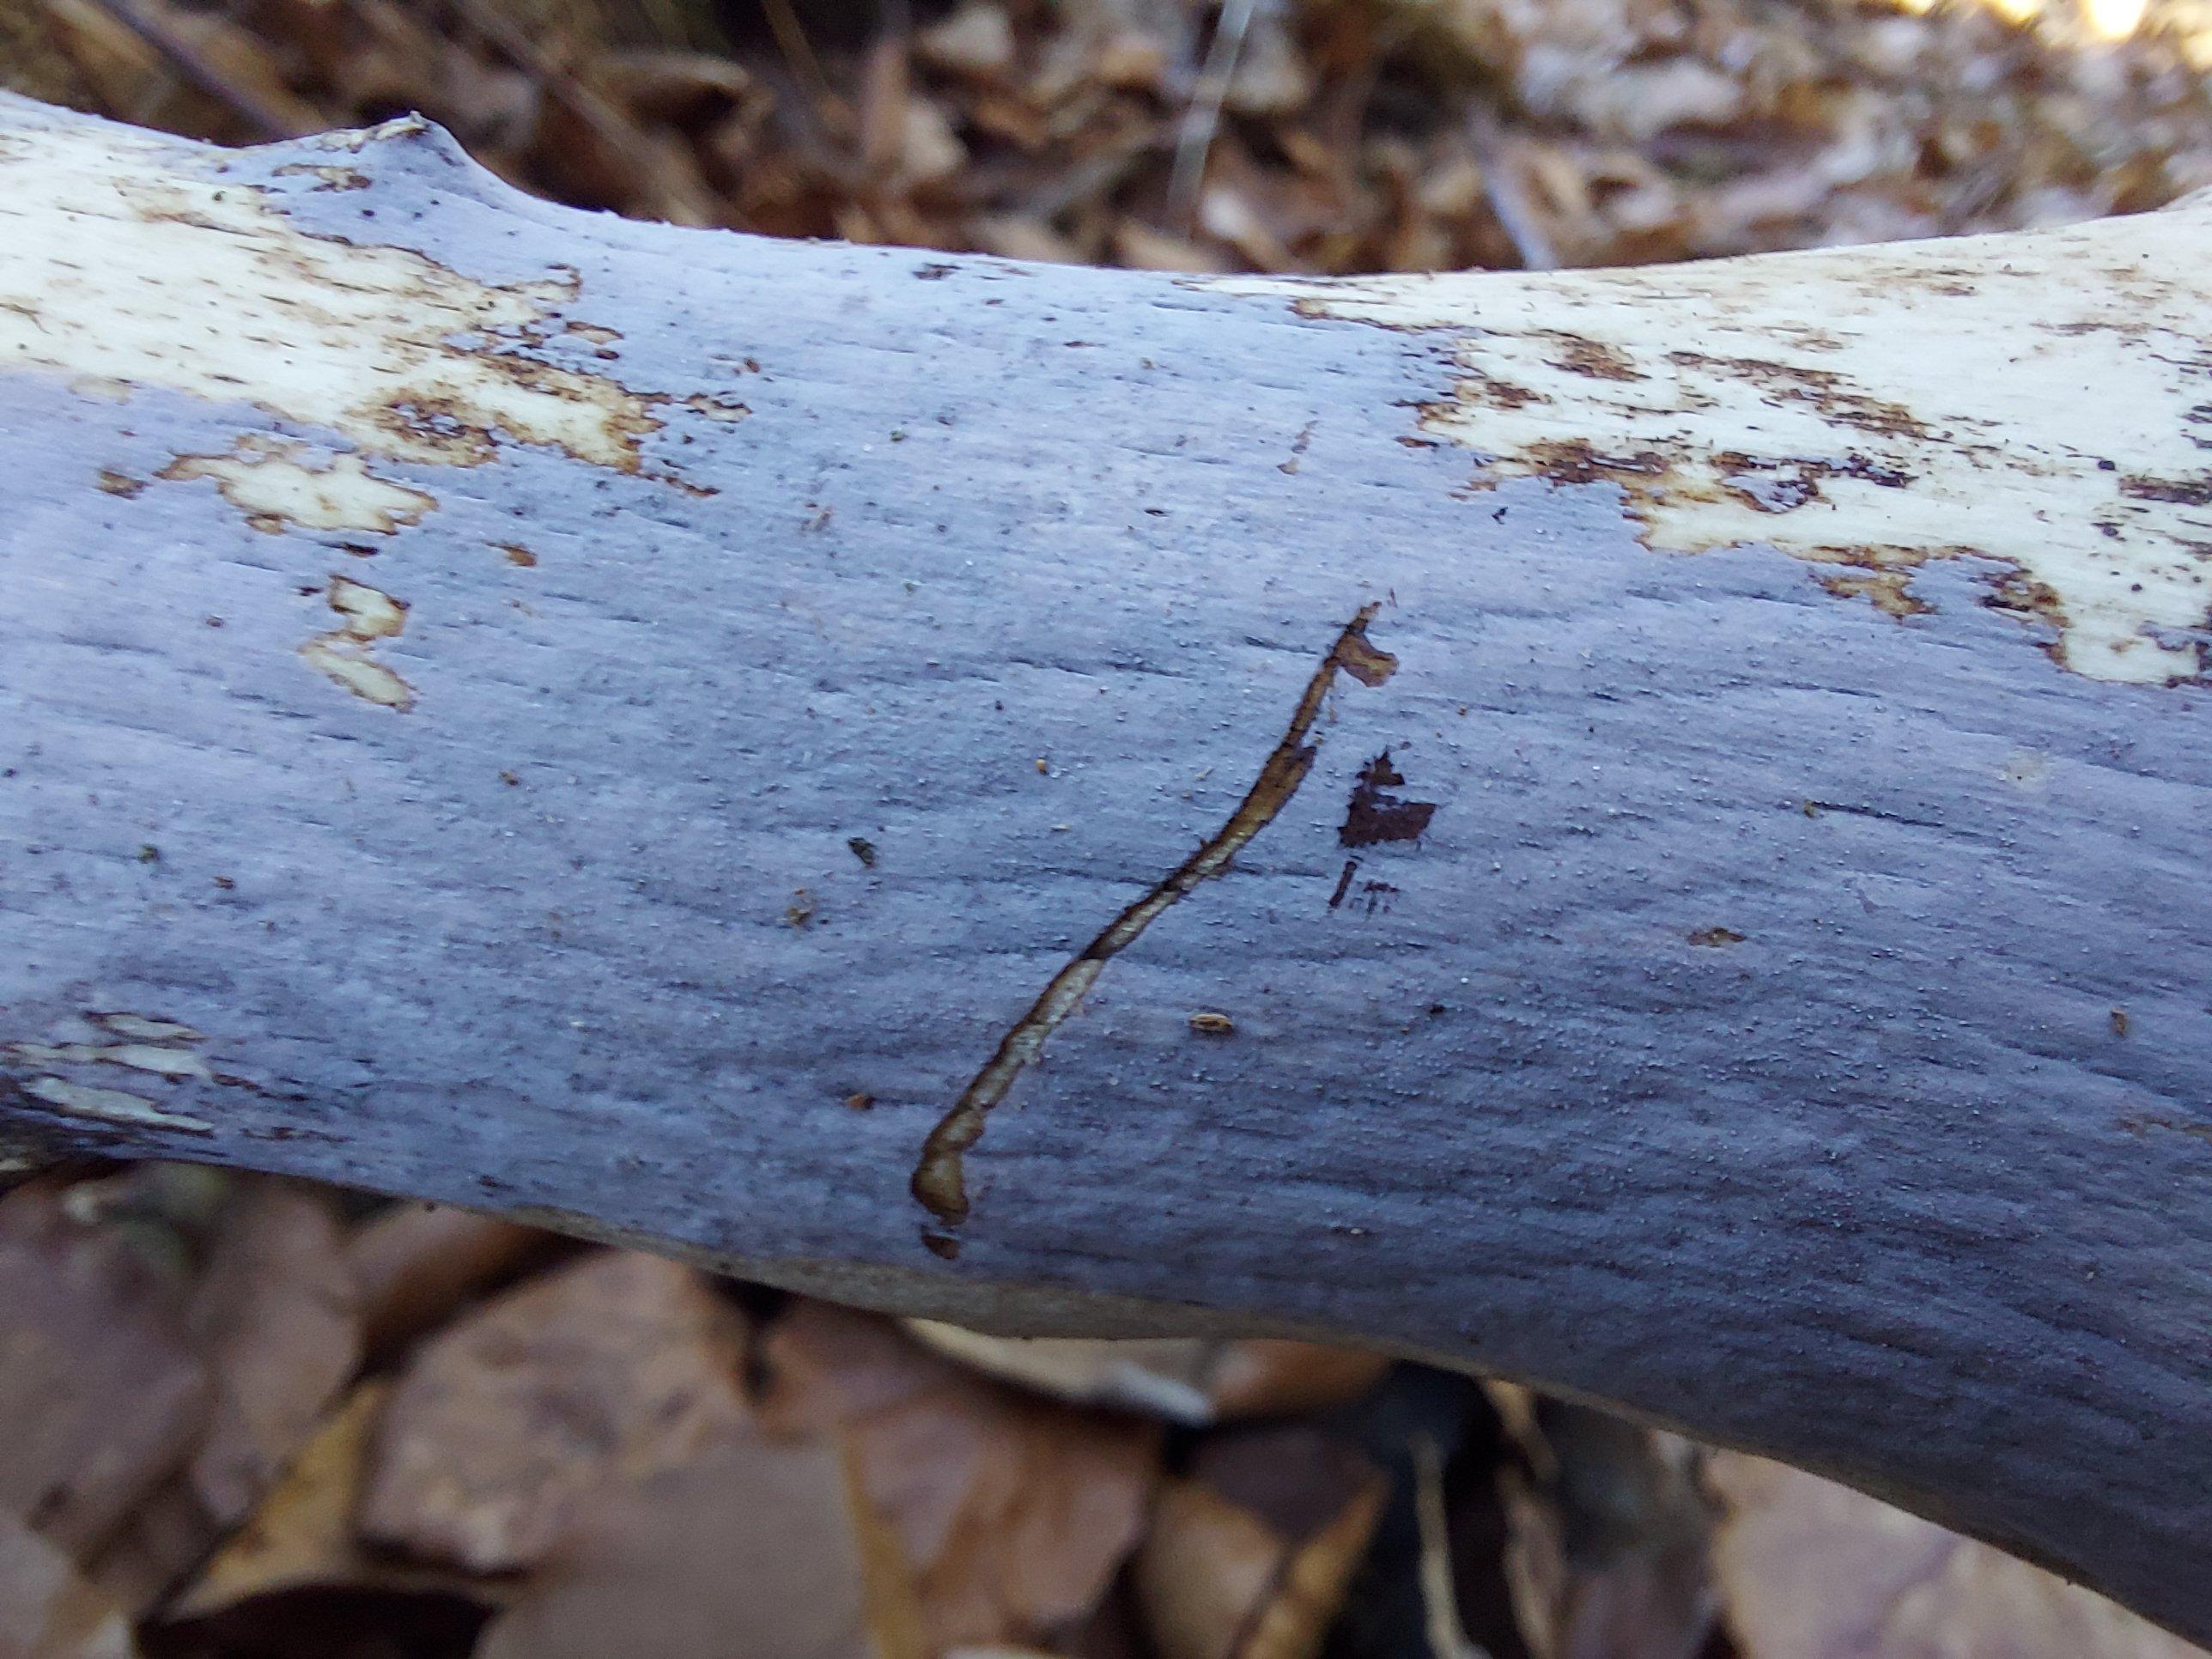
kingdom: Fungi
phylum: Basidiomycota
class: Agaricomycetes
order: Corticiales
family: Corticiaceae
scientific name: Corticiaceae
